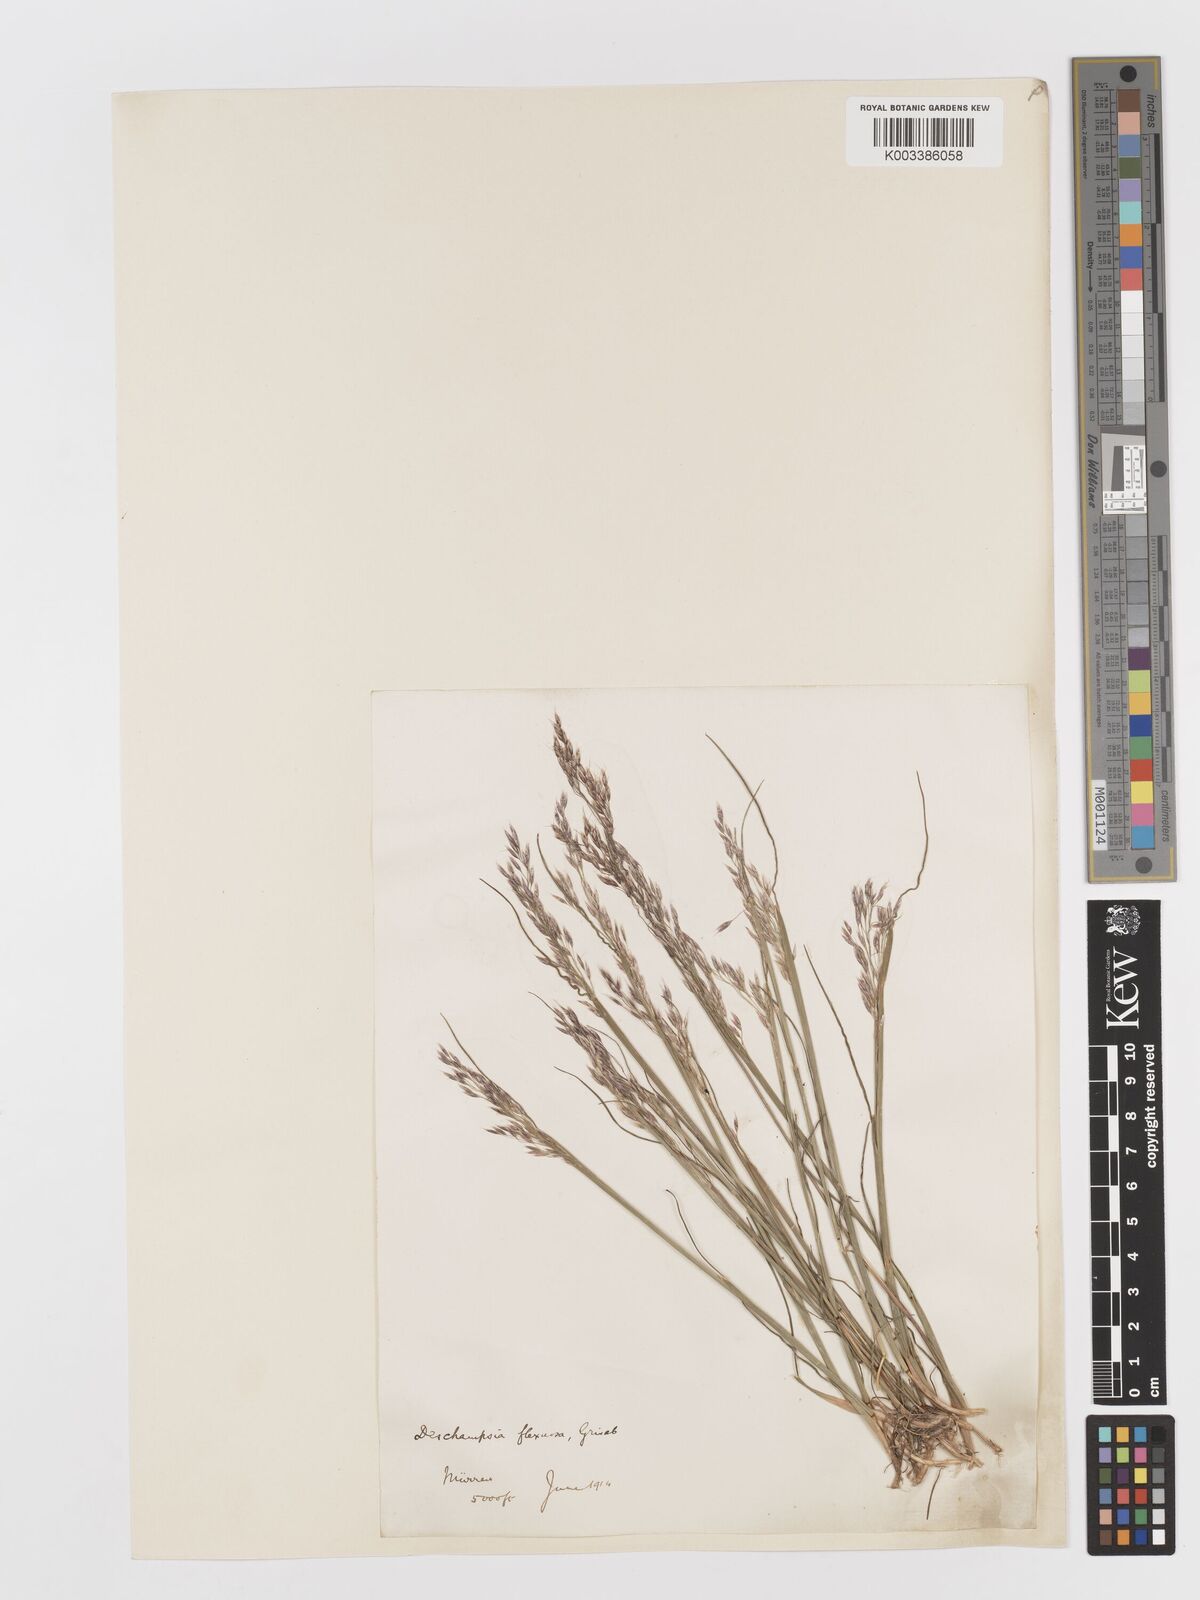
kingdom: Plantae
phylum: Tracheophyta
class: Liliopsida
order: Poales
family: Poaceae
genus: Avenella
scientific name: Avenella flexuosa
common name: Wavy hairgrass
